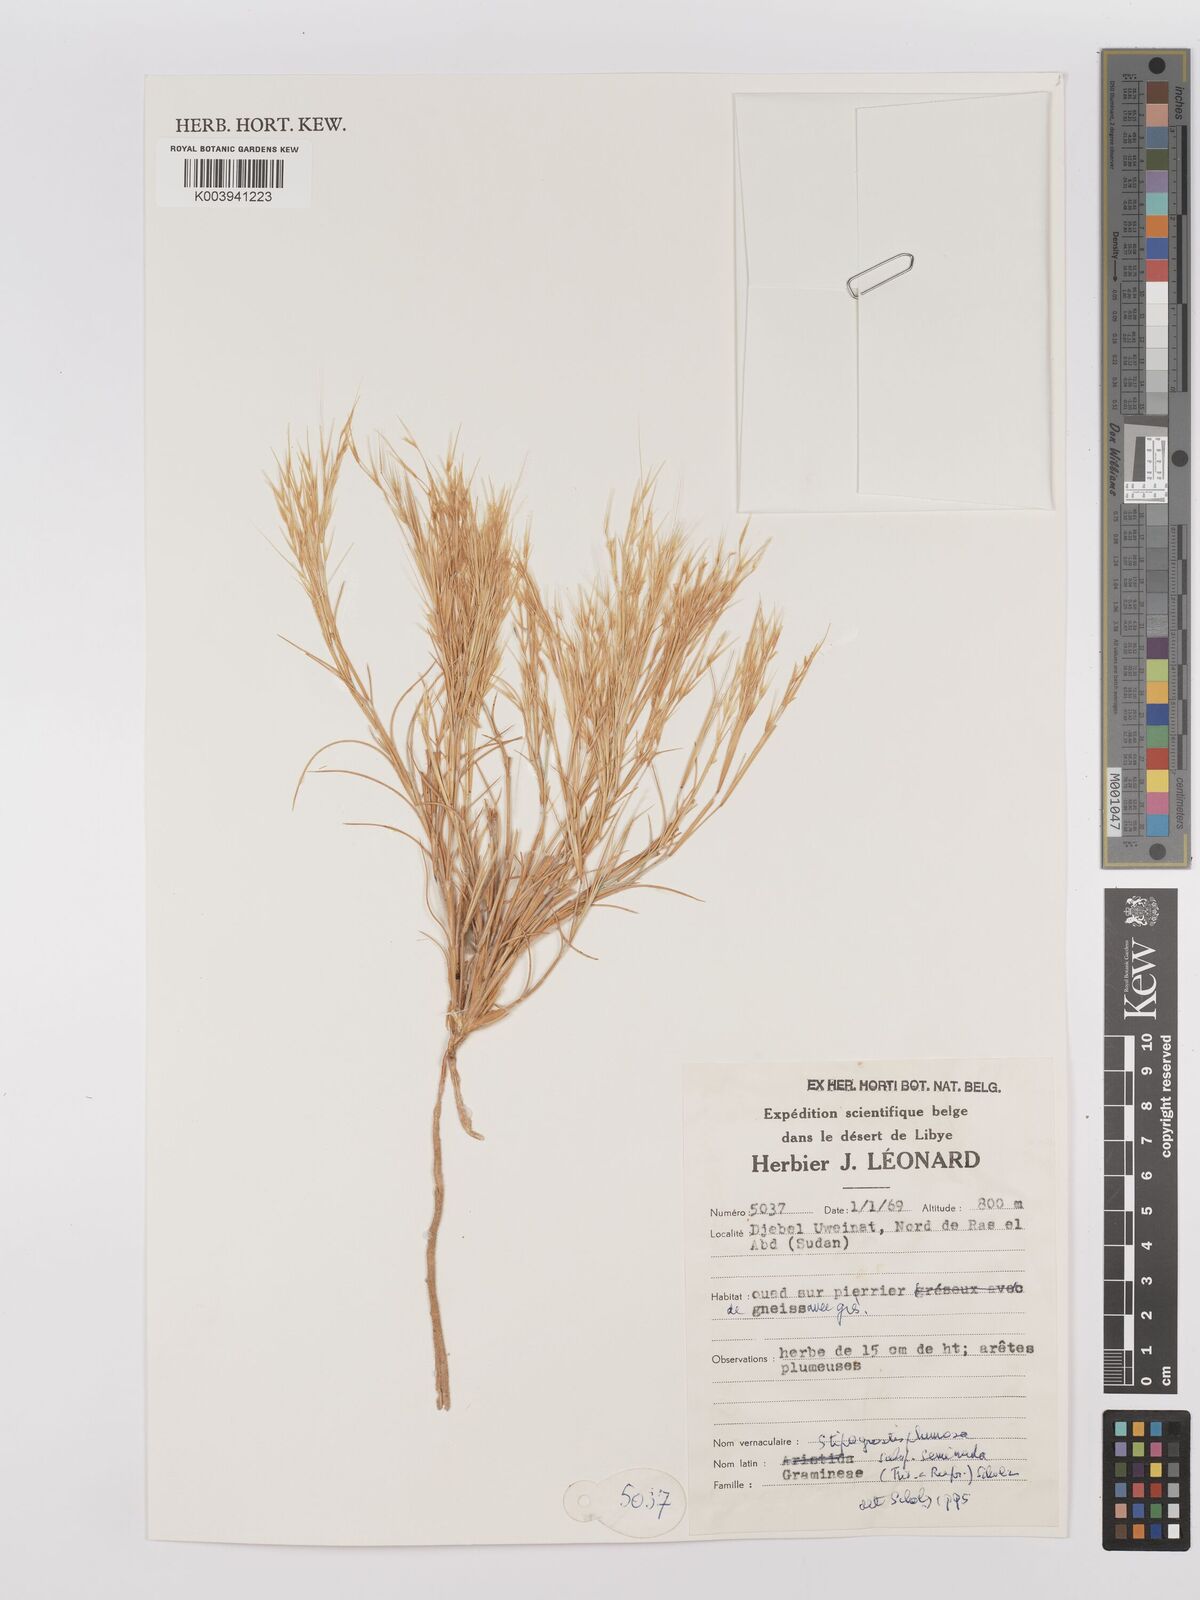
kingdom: Plantae
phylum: Tracheophyta
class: Liliopsida
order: Poales
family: Poaceae
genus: Stipagrostis
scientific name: Stipagrostis plumosa
